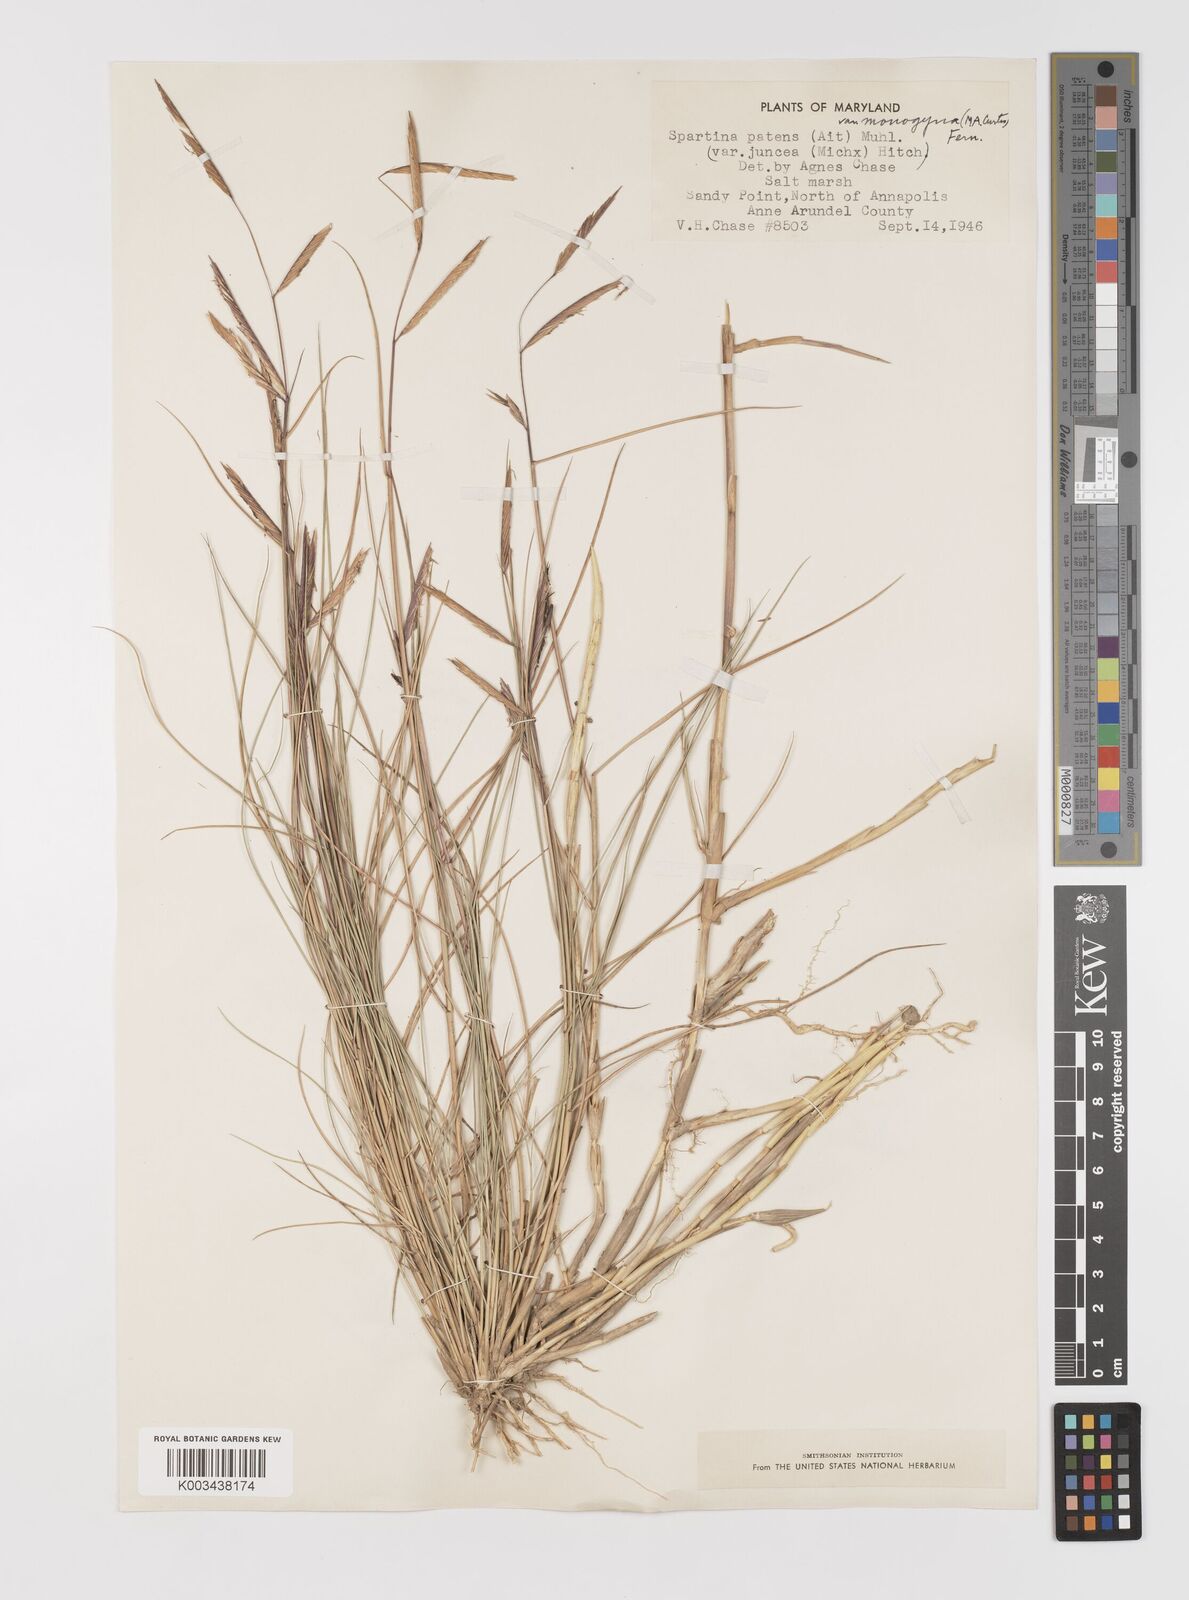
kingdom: Plantae
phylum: Tracheophyta
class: Liliopsida
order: Poales
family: Poaceae
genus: Sporobolus
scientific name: Sporobolus pumilus
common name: Highwater grass
